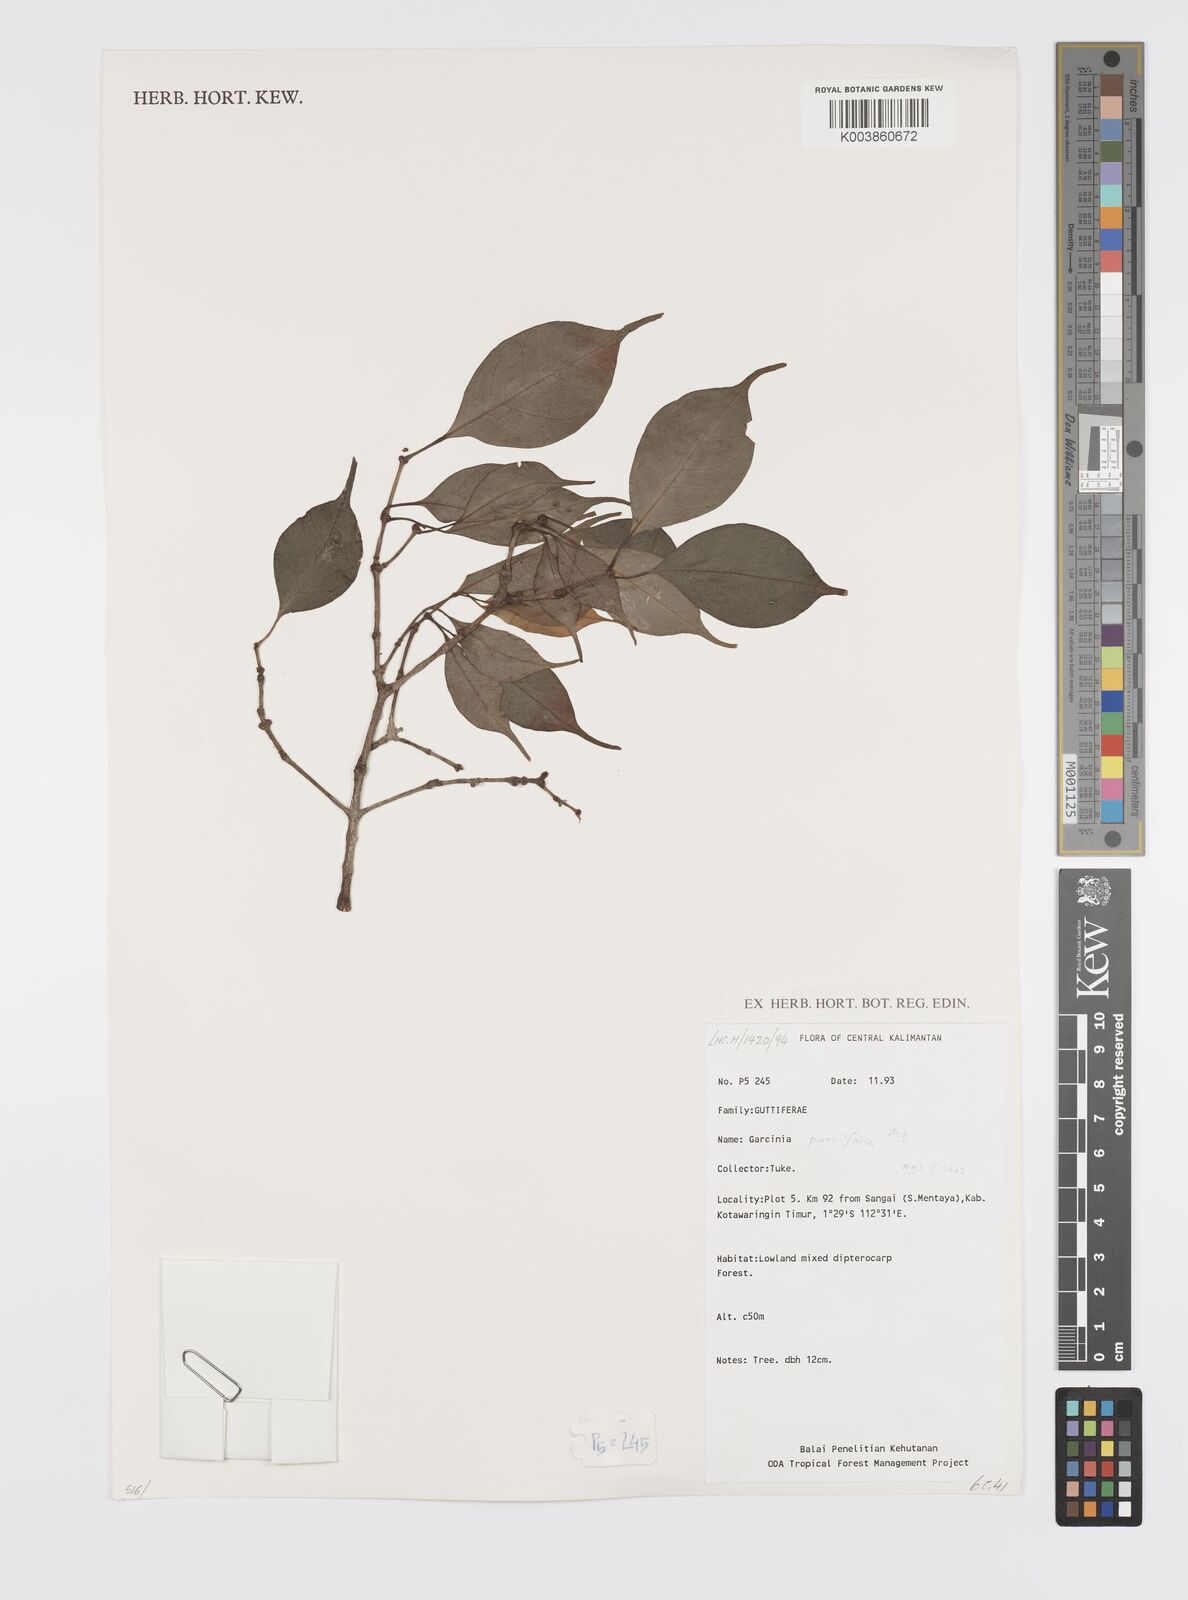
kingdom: Plantae
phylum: Tracheophyta
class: Magnoliopsida
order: Malpighiales
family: Clusiaceae
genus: Garcinia
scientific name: Garcinia parvifolia
